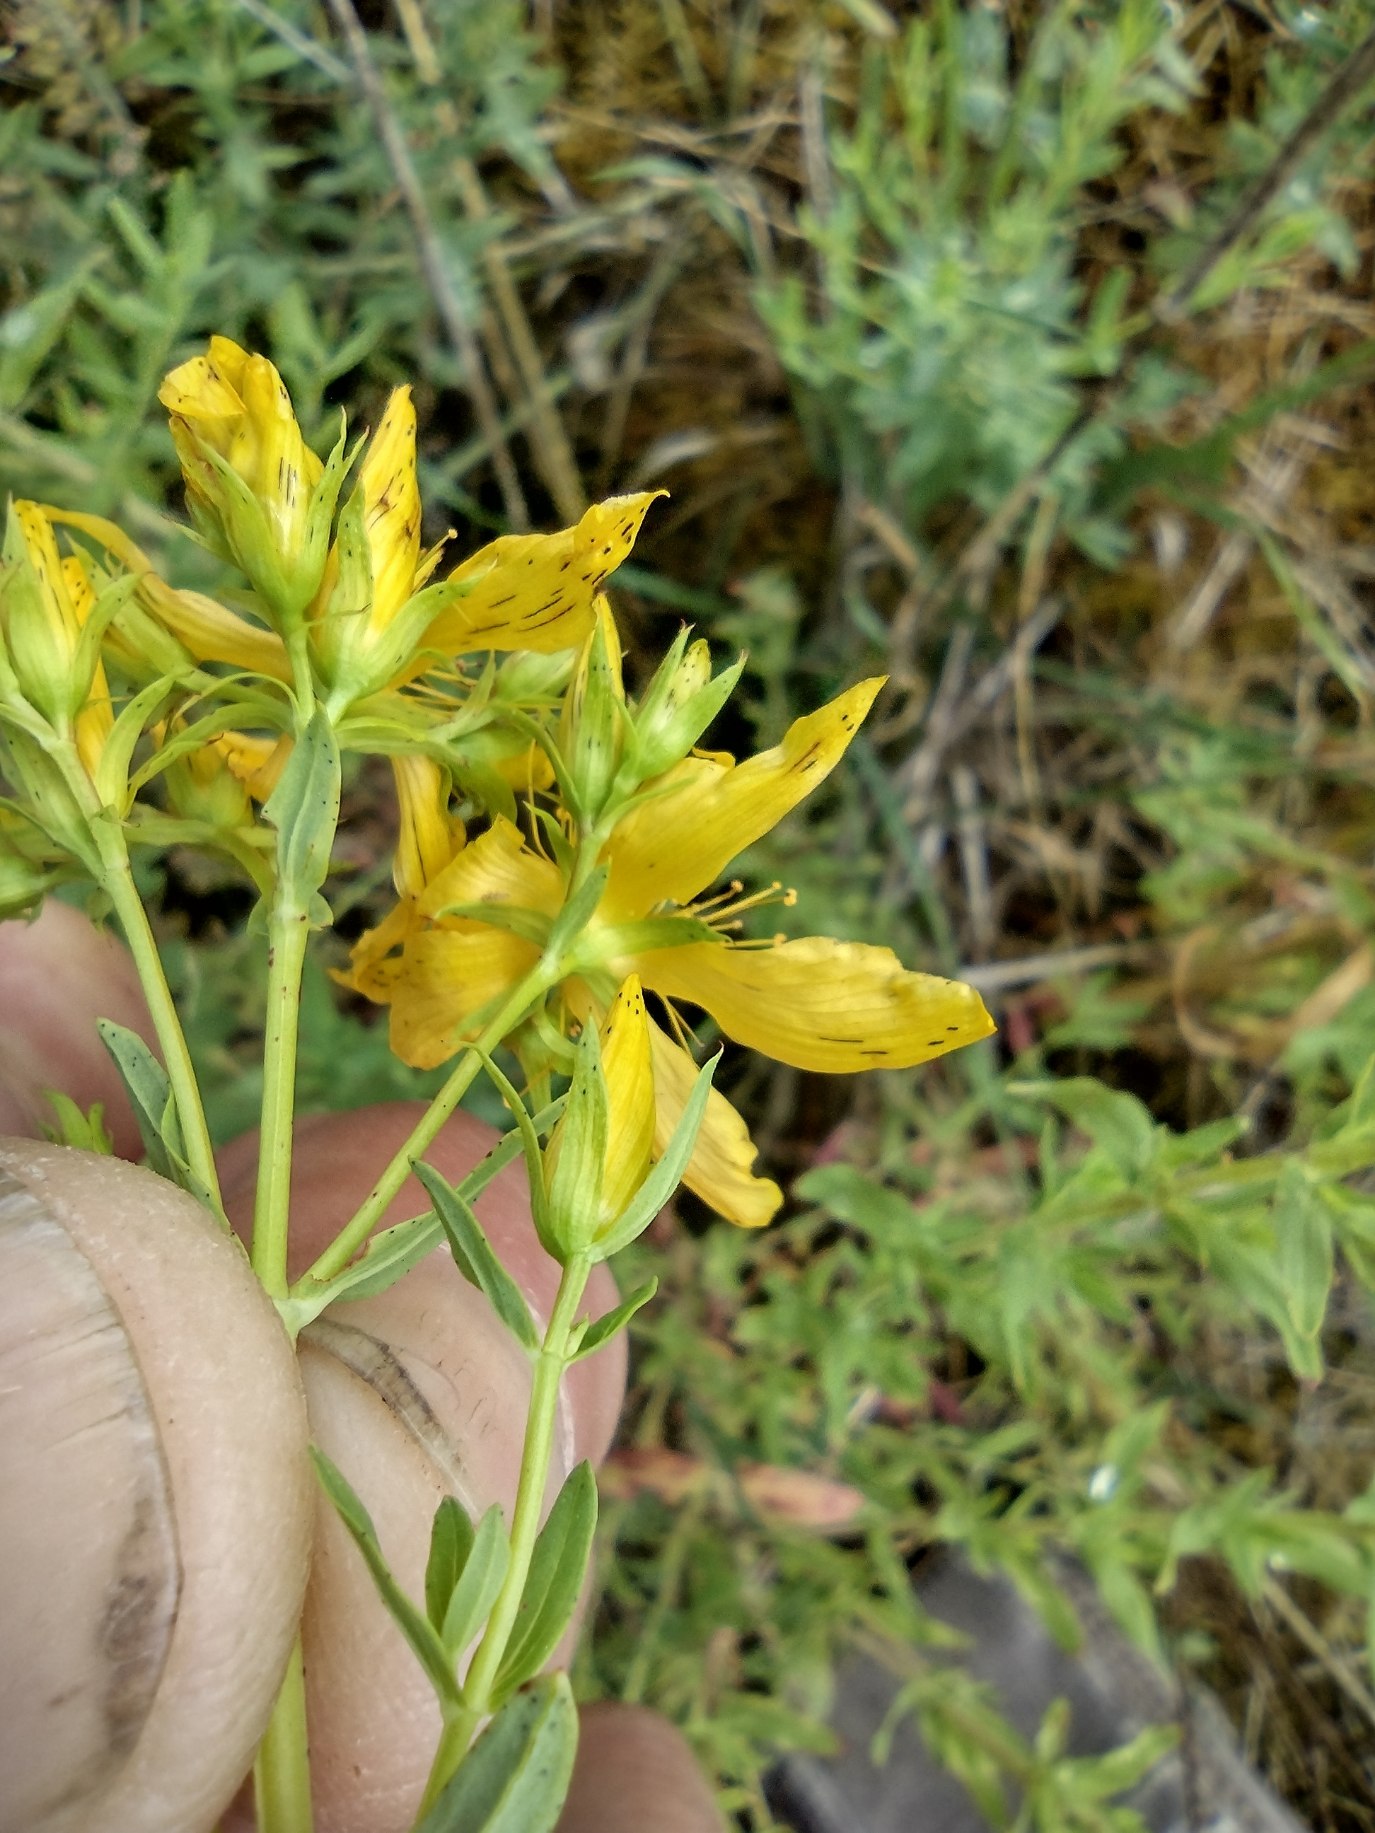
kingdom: Plantae
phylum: Tracheophyta
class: Magnoliopsida
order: Malpighiales
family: Hypericaceae
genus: Hypericum
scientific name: Hypericum perforatum
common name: Prikbladet perikon
